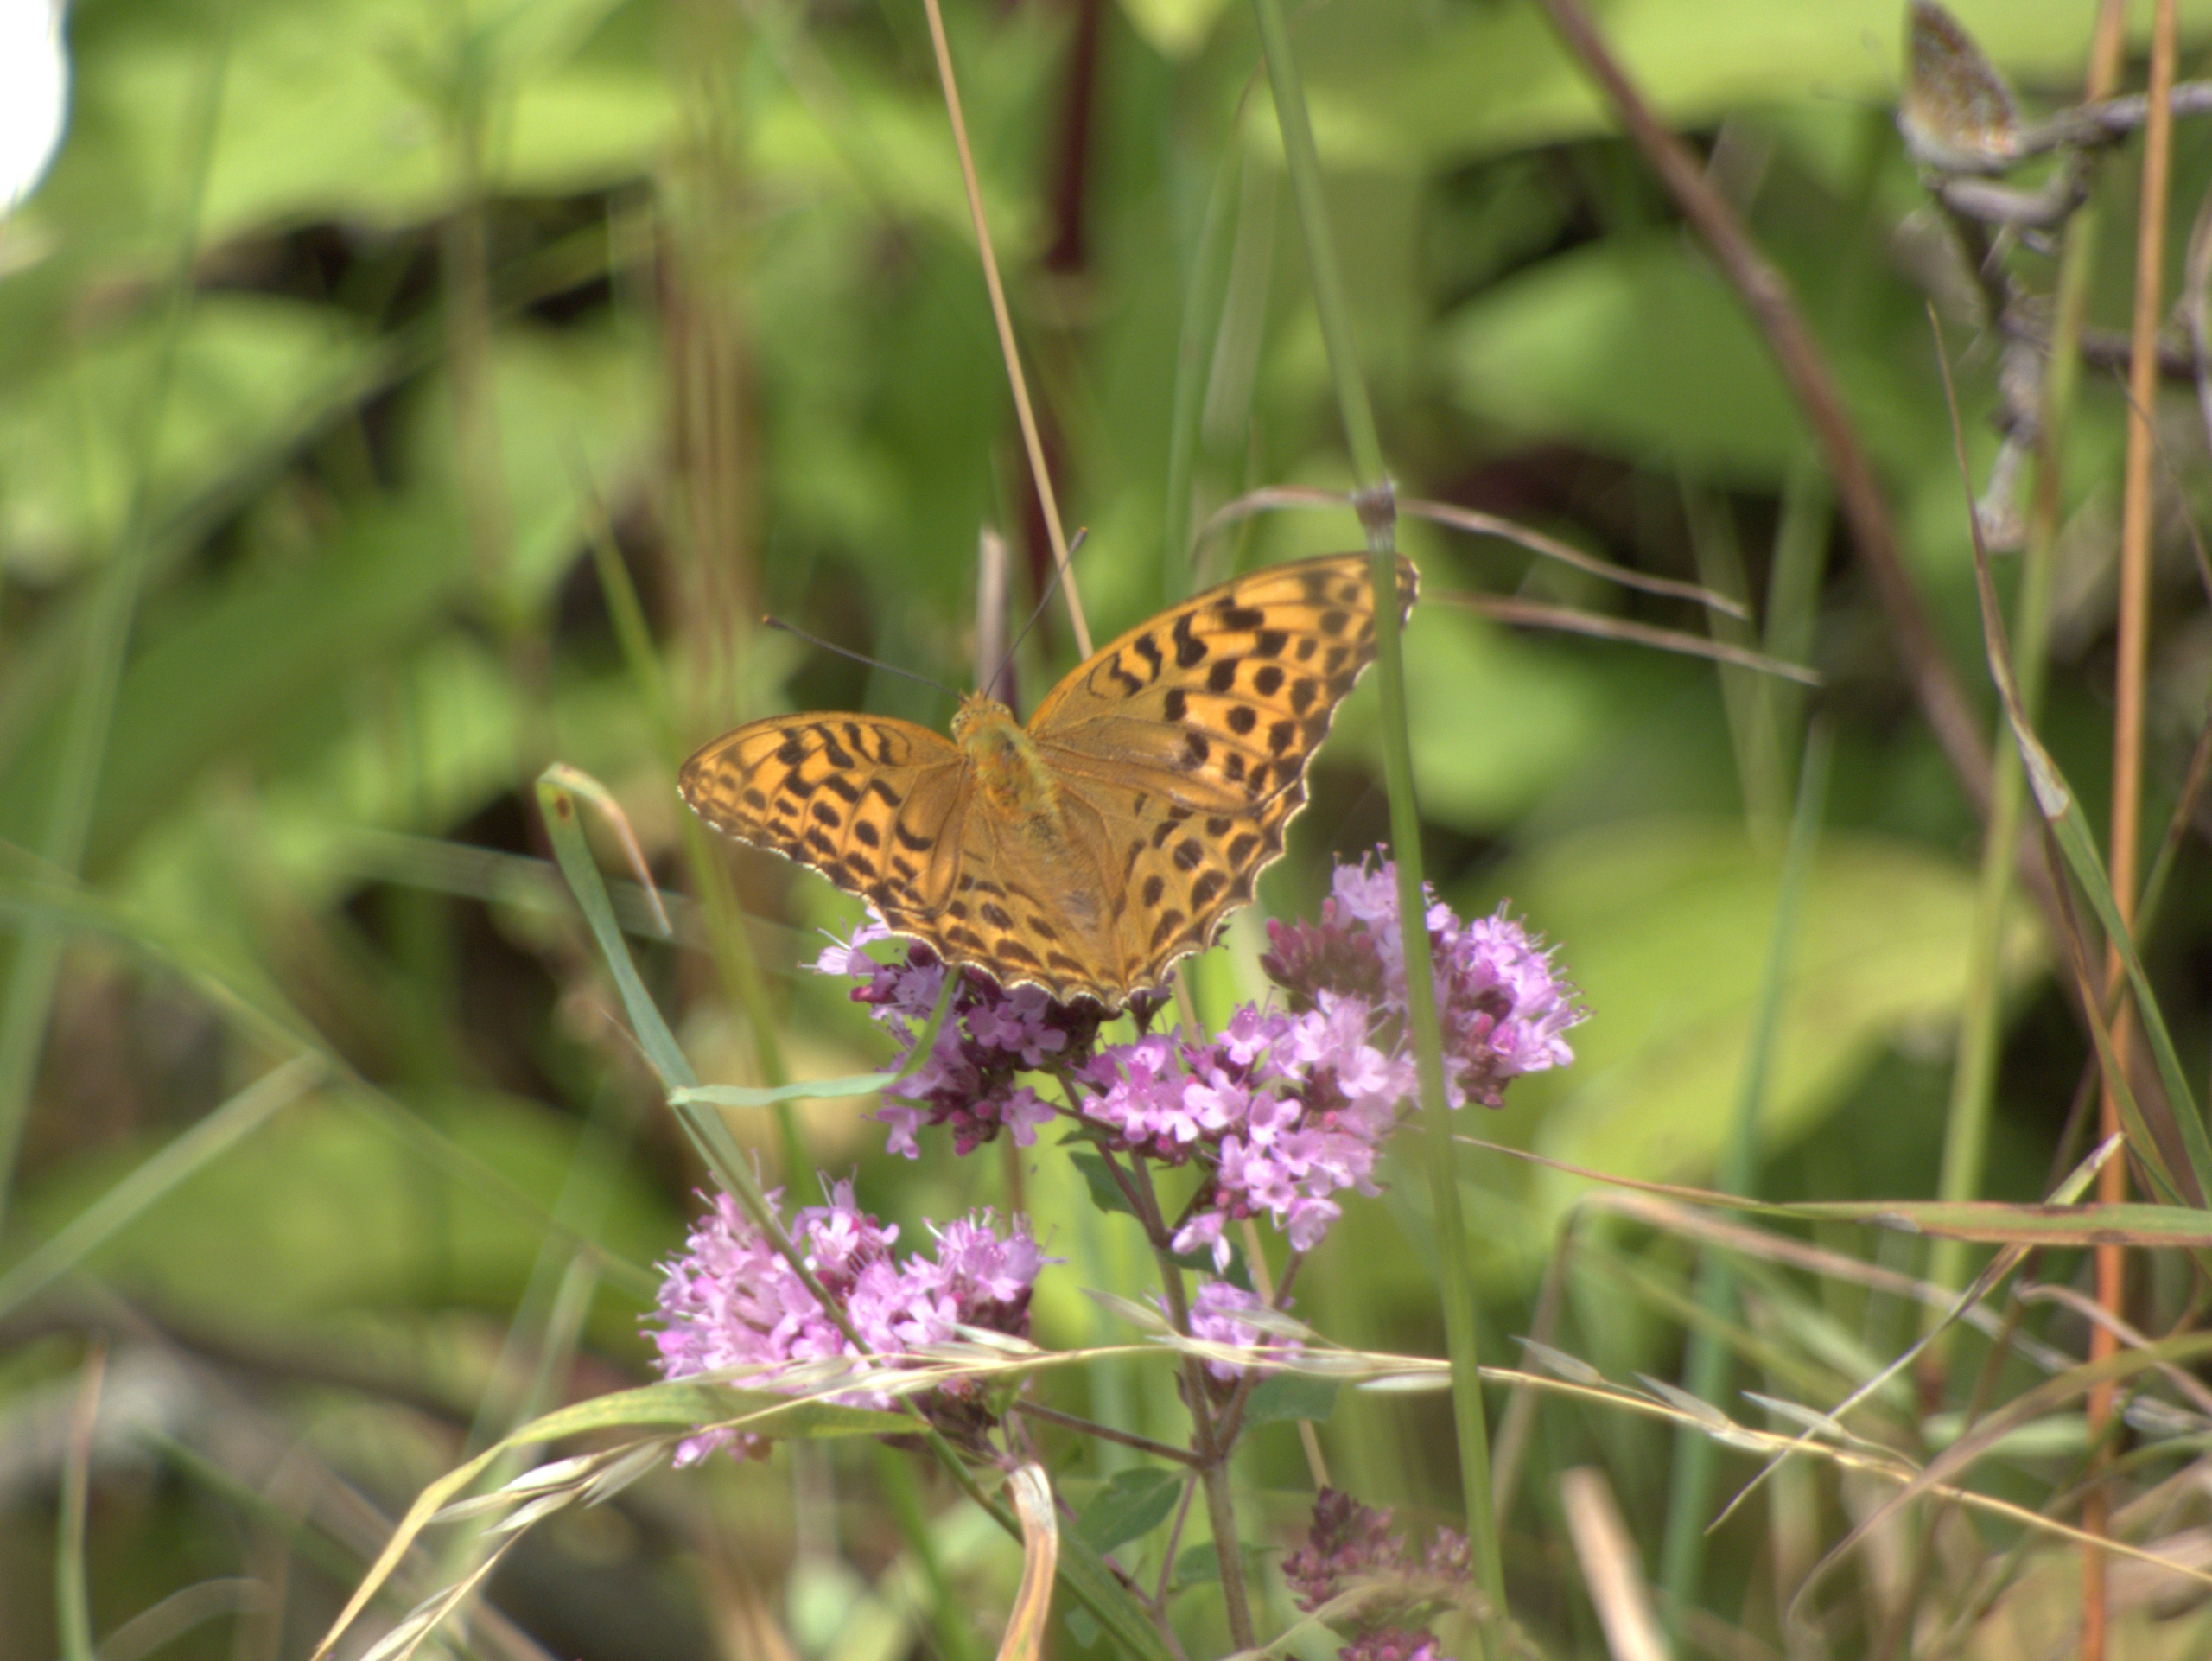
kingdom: Animalia
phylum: Arthropoda
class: Insecta
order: Lepidoptera
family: Nymphalidae
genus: Argynnis
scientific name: Argynnis paphia
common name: Kejserkåbe
